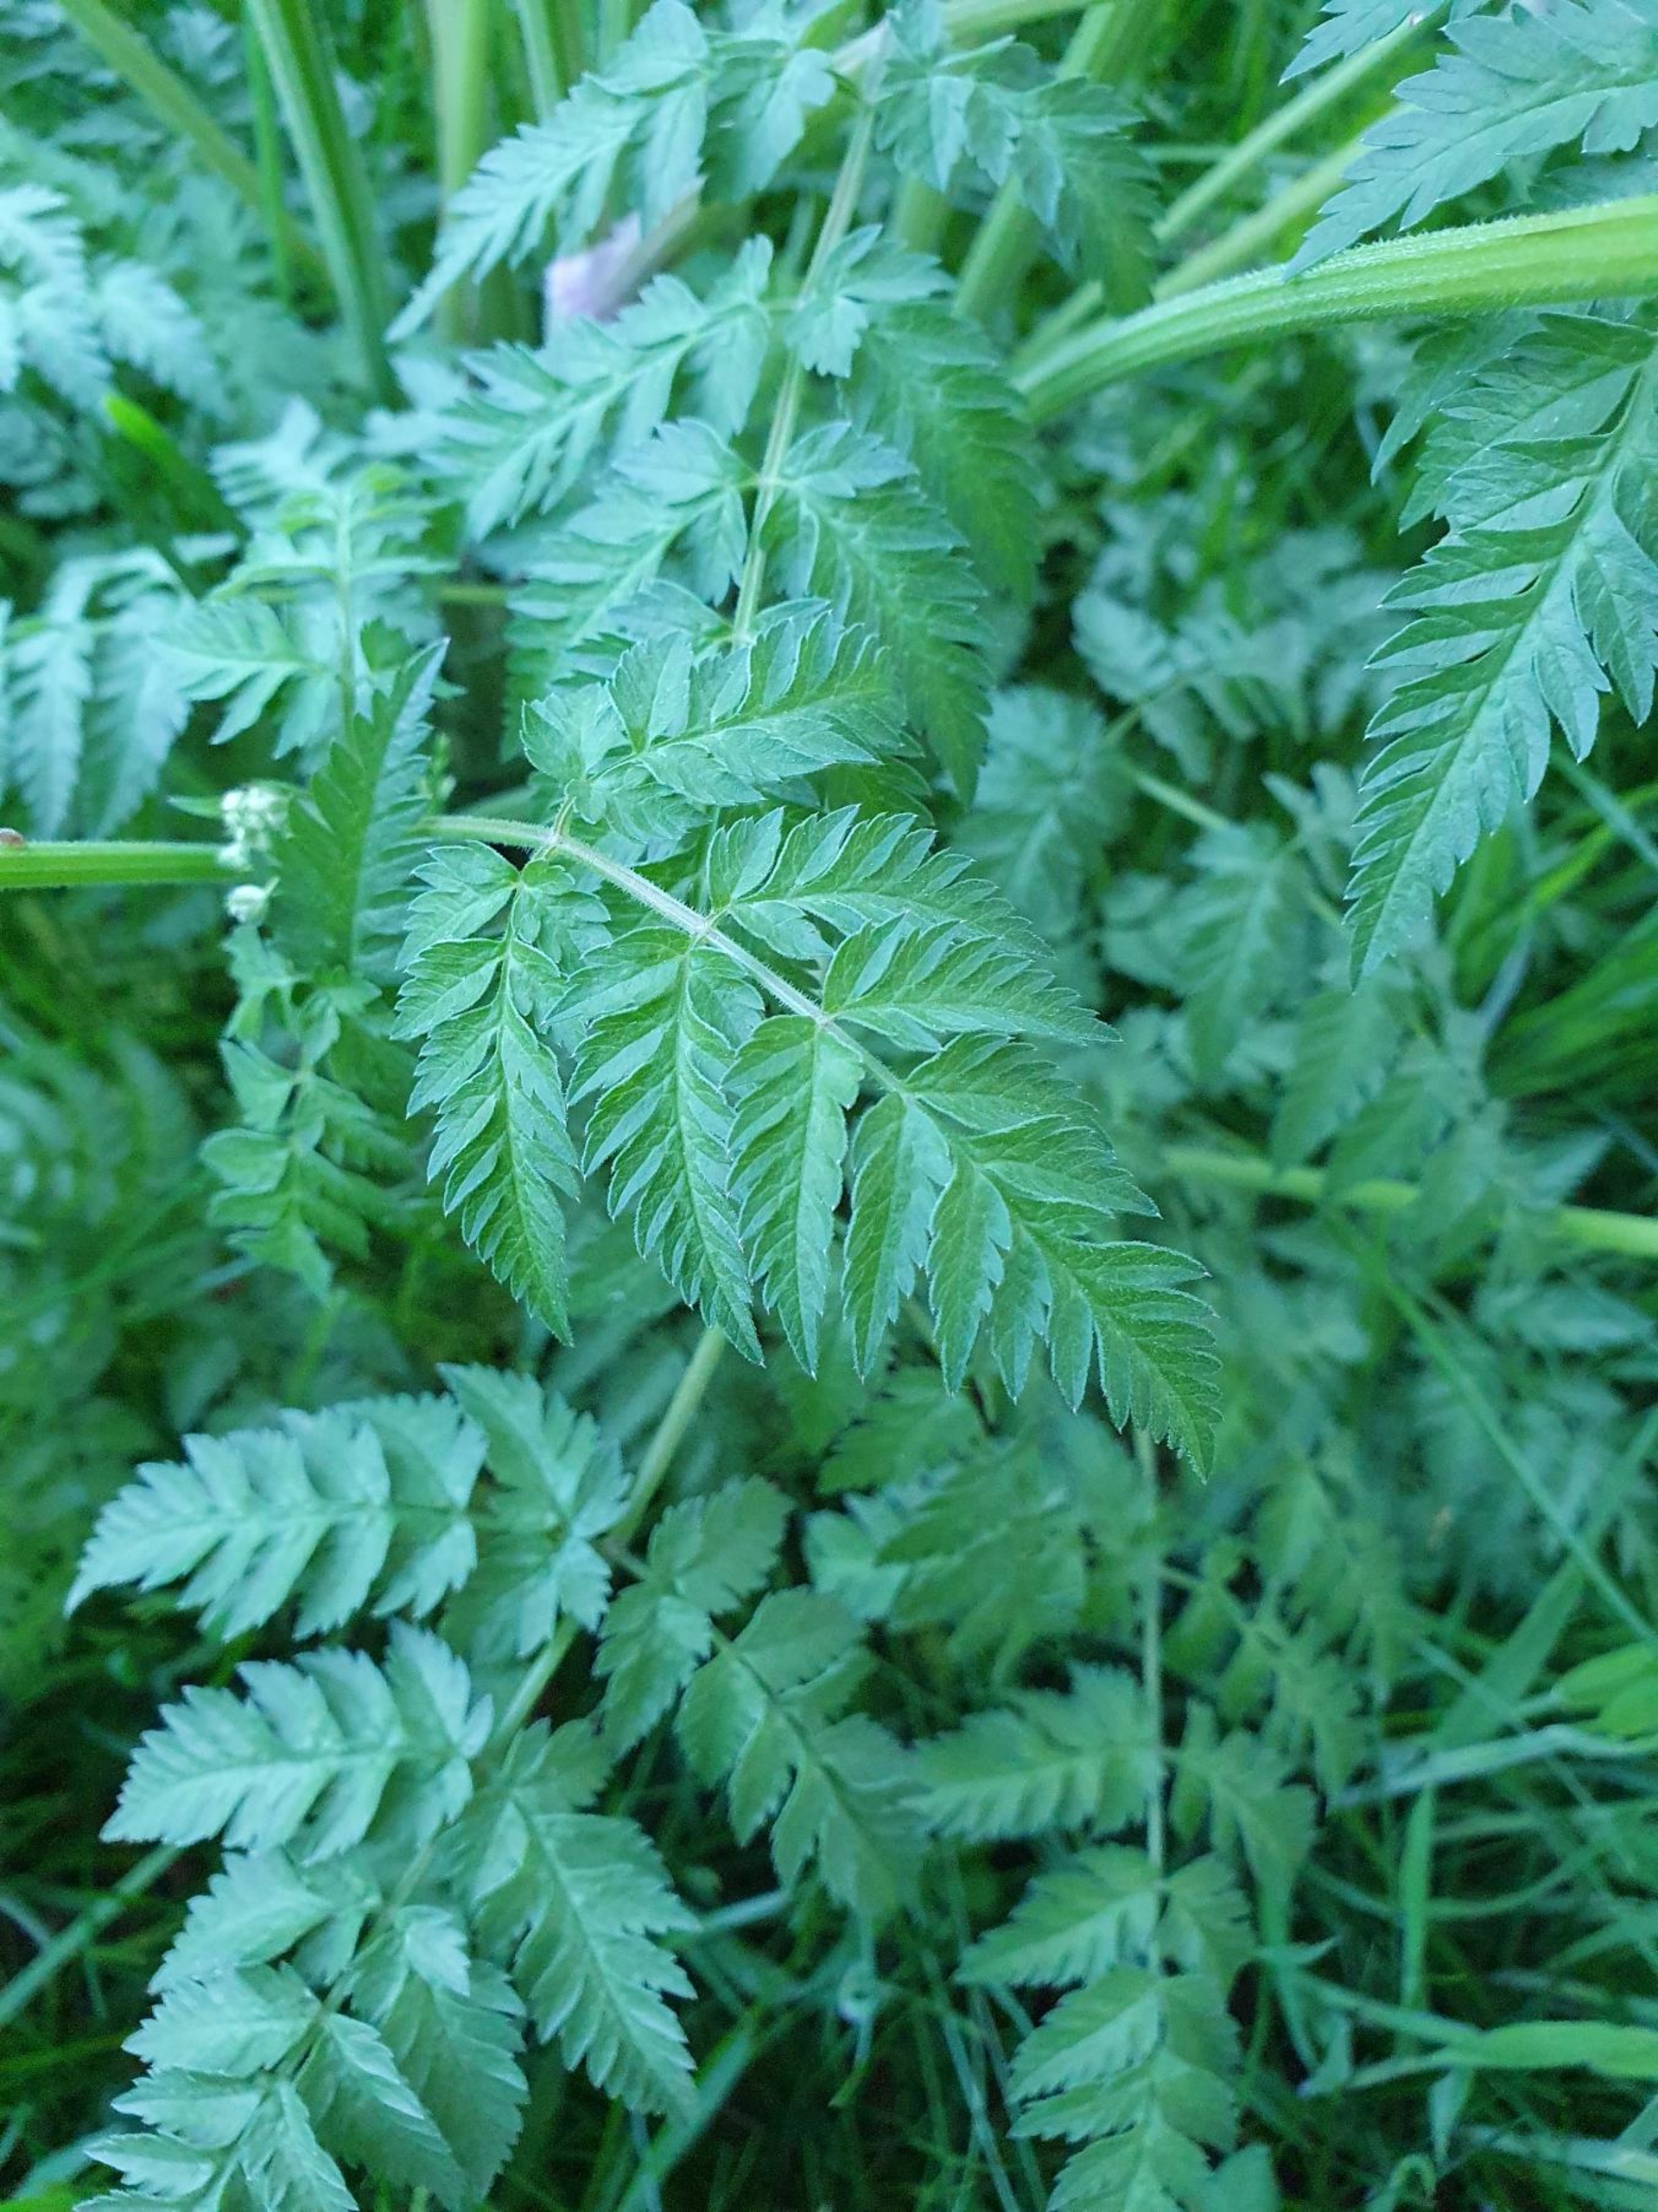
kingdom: Plantae
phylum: Tracheophyta
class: Magnoliopsida
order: Apiales
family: Apiaceae
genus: Anthriscus
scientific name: Anthriscus sylvestris
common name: Vild kørvel
